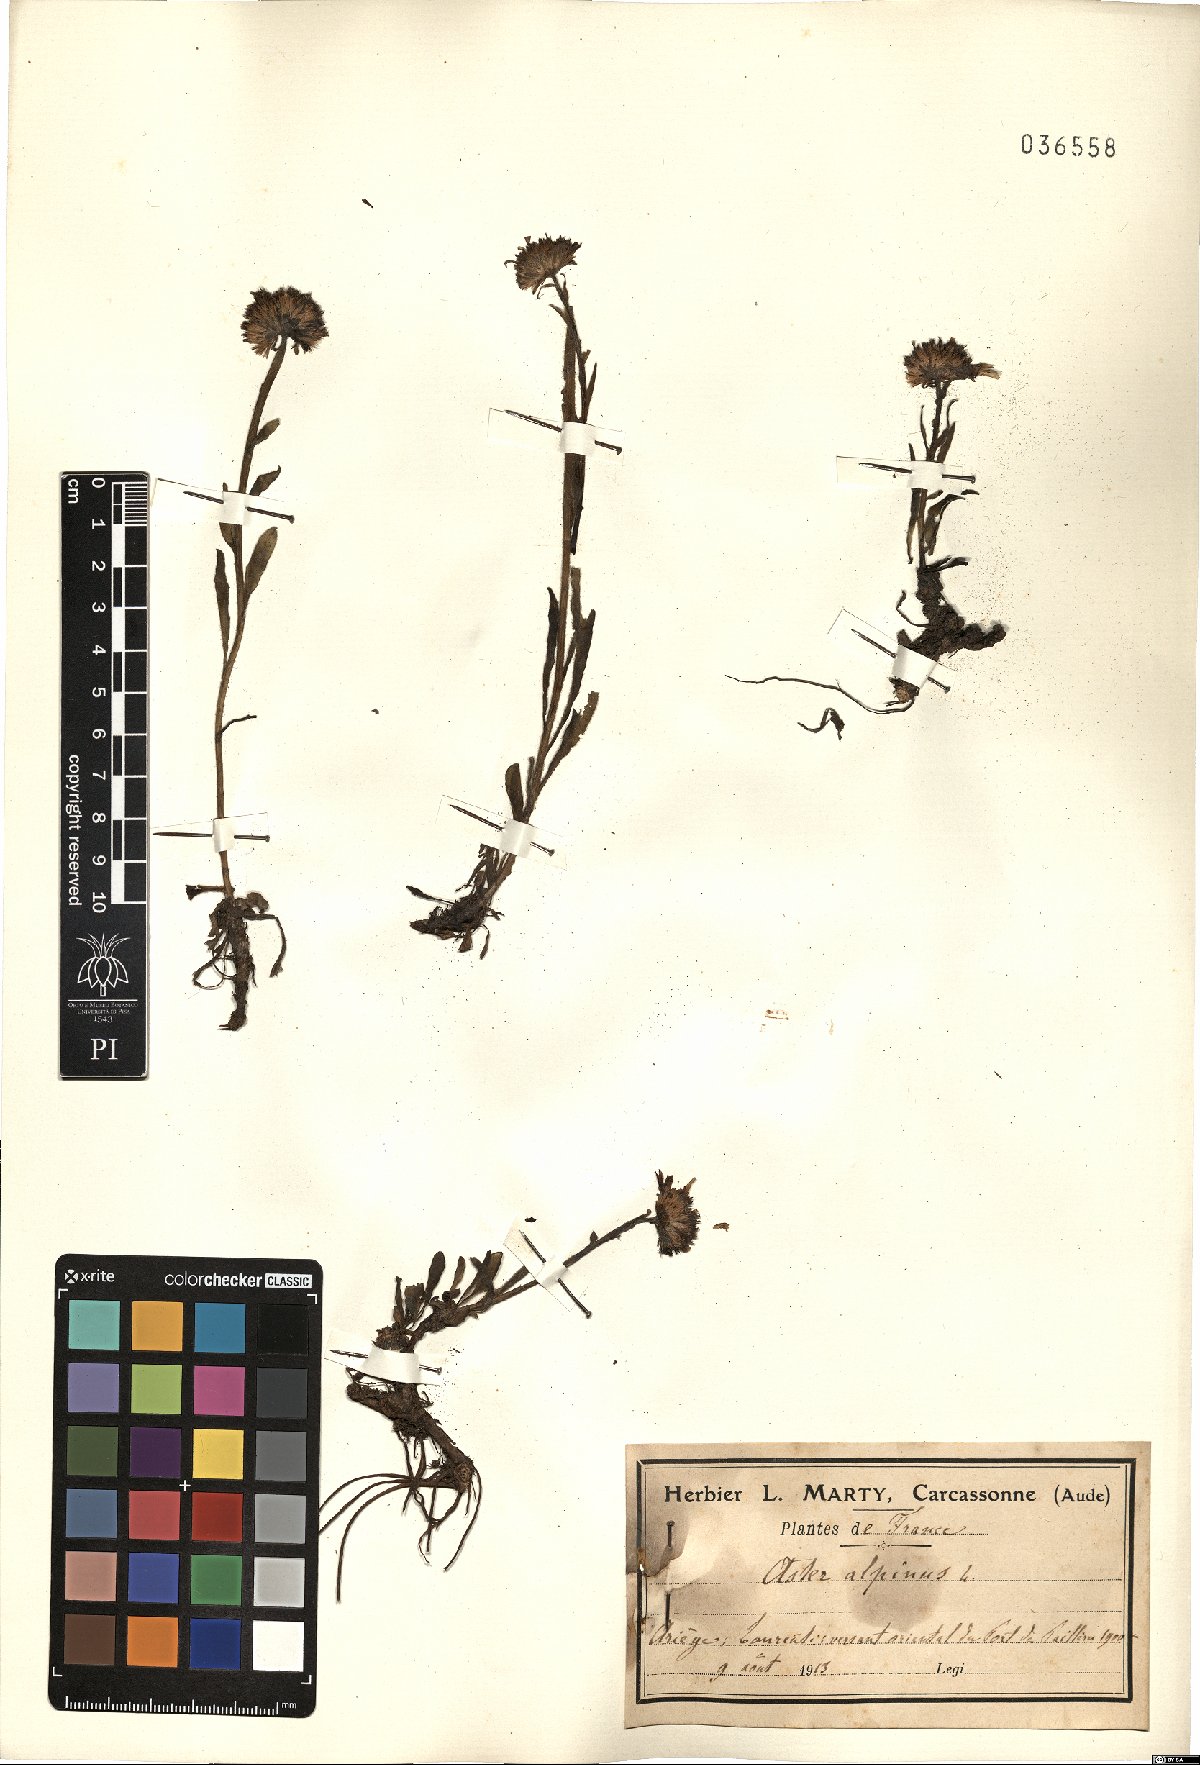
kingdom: Plantae
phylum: Tracheophyta
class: Magnoliopsida
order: Asterales
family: Asteraceae
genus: Aster
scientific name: Aster alpinus
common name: Alpine aster
